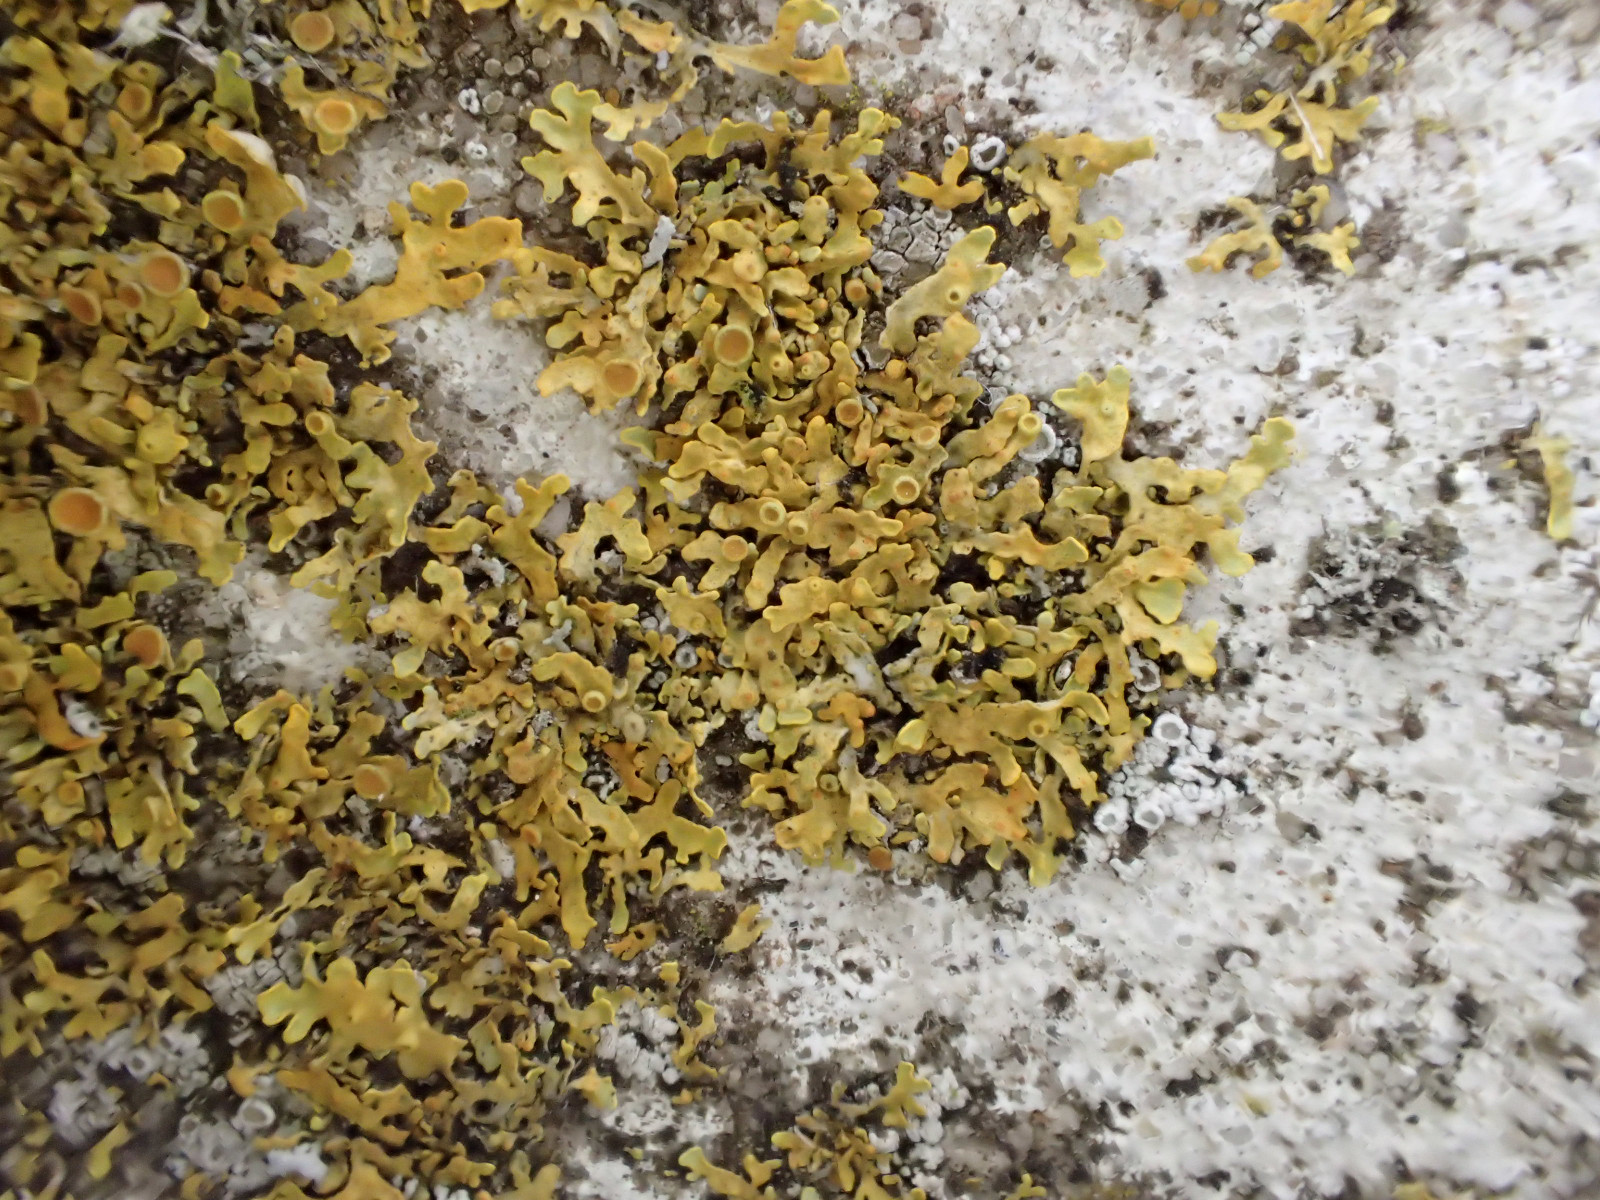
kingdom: Fungi
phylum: Ascomycota
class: Lecanoromycetes
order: Teloschistales
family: Teloschistaceae
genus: Xanthoria
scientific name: Xanthoria aureola
